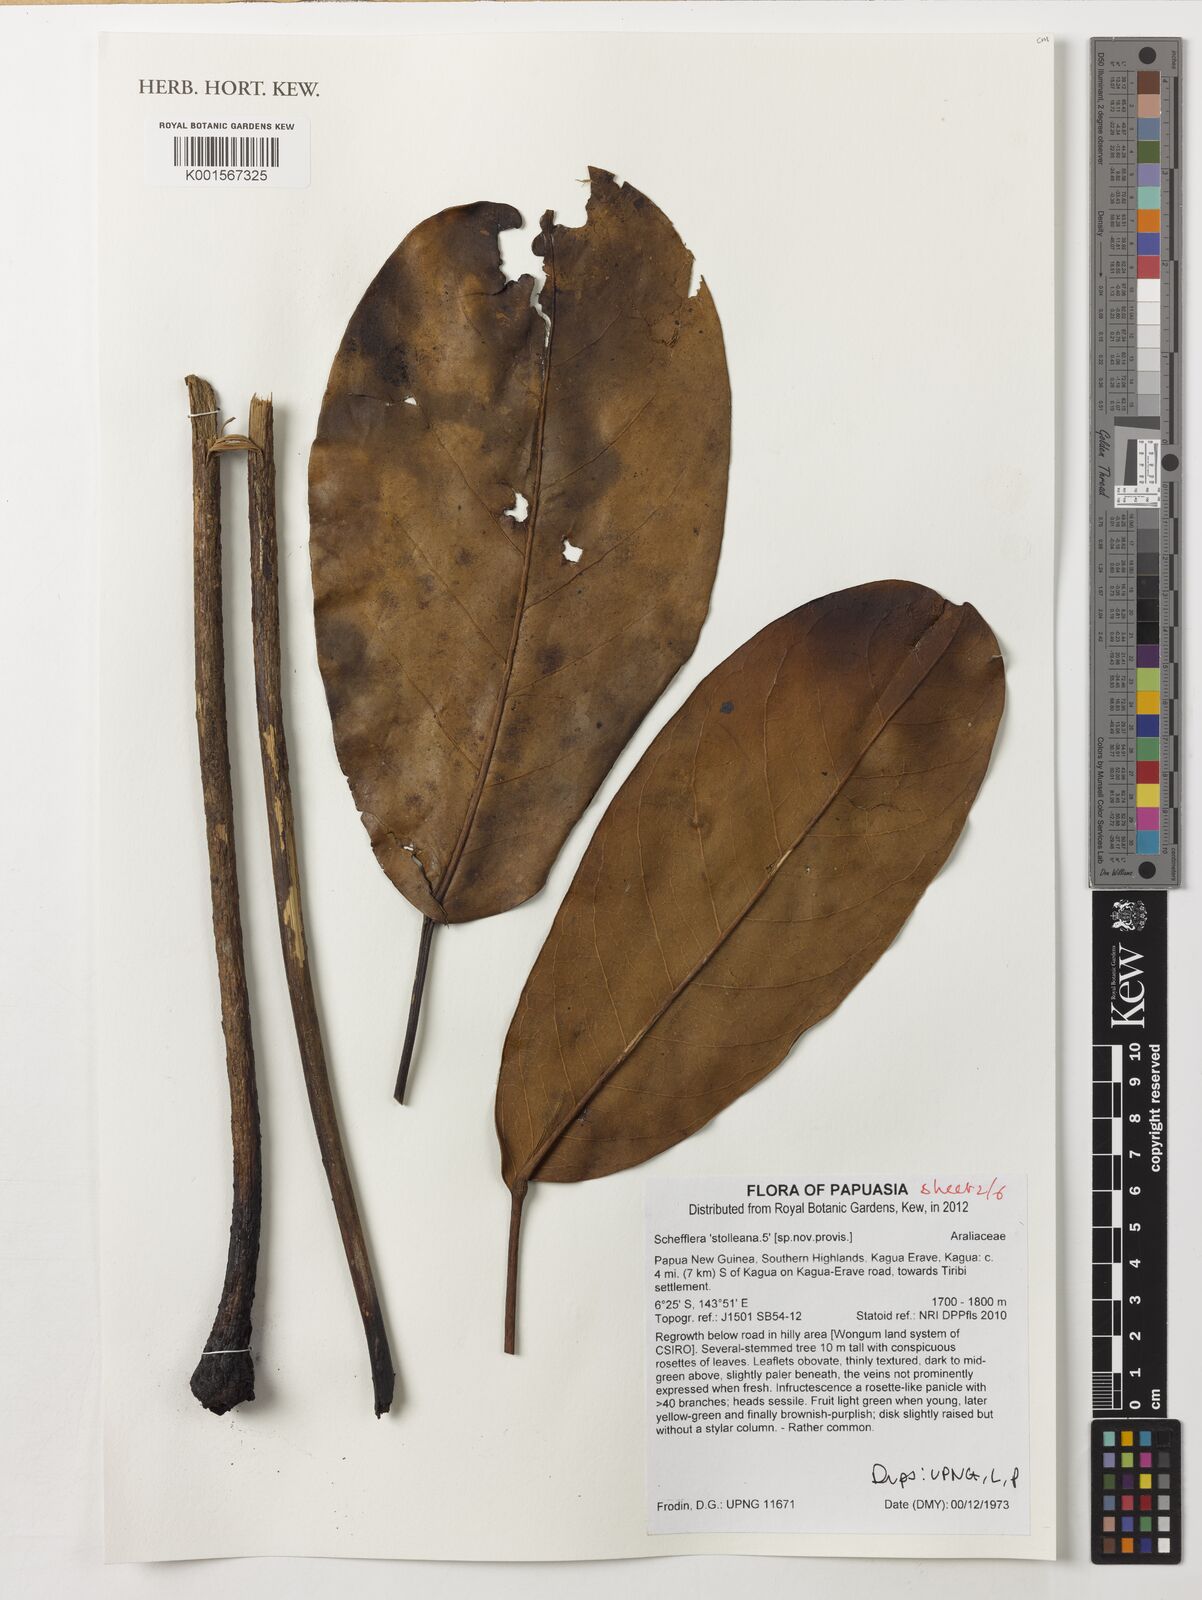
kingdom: Plantae
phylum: Tracheophyta
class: Magnoliopsida
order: Apiales
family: Araliaceae
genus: Heptapleurum
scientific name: Heptapleurum stolleanum
